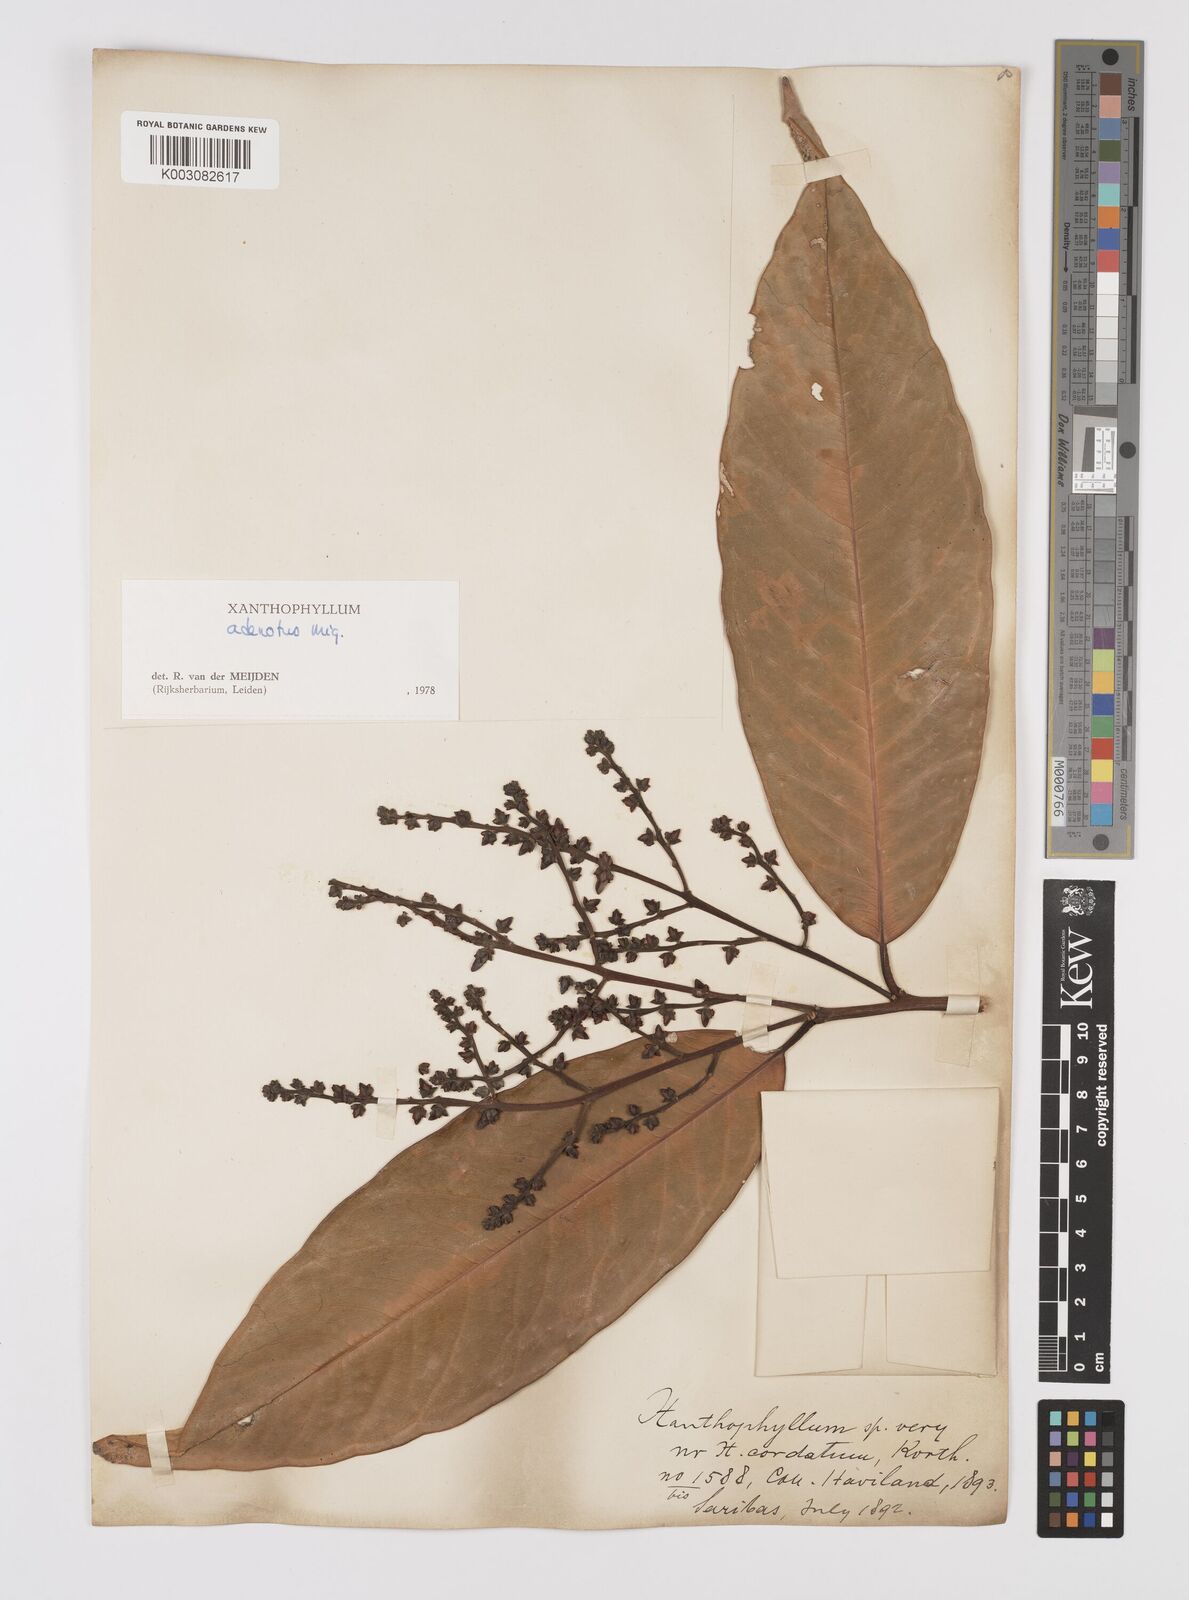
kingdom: Plantae
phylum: Tracheophyta
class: Magnoliopsida
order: Fabales
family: Polygalaceae
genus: Xanthophyllum
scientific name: Xanthophyllum adenotus
